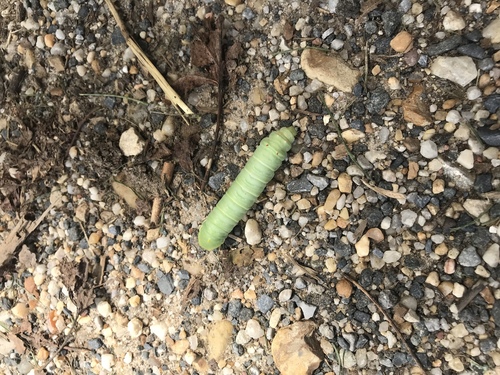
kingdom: Animalia
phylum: Arthropoda
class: Insecta
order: Lepidoptera
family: Saturniidae
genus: Callosamia
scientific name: Callosamia angulifera
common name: Tulip tree silkmoth
